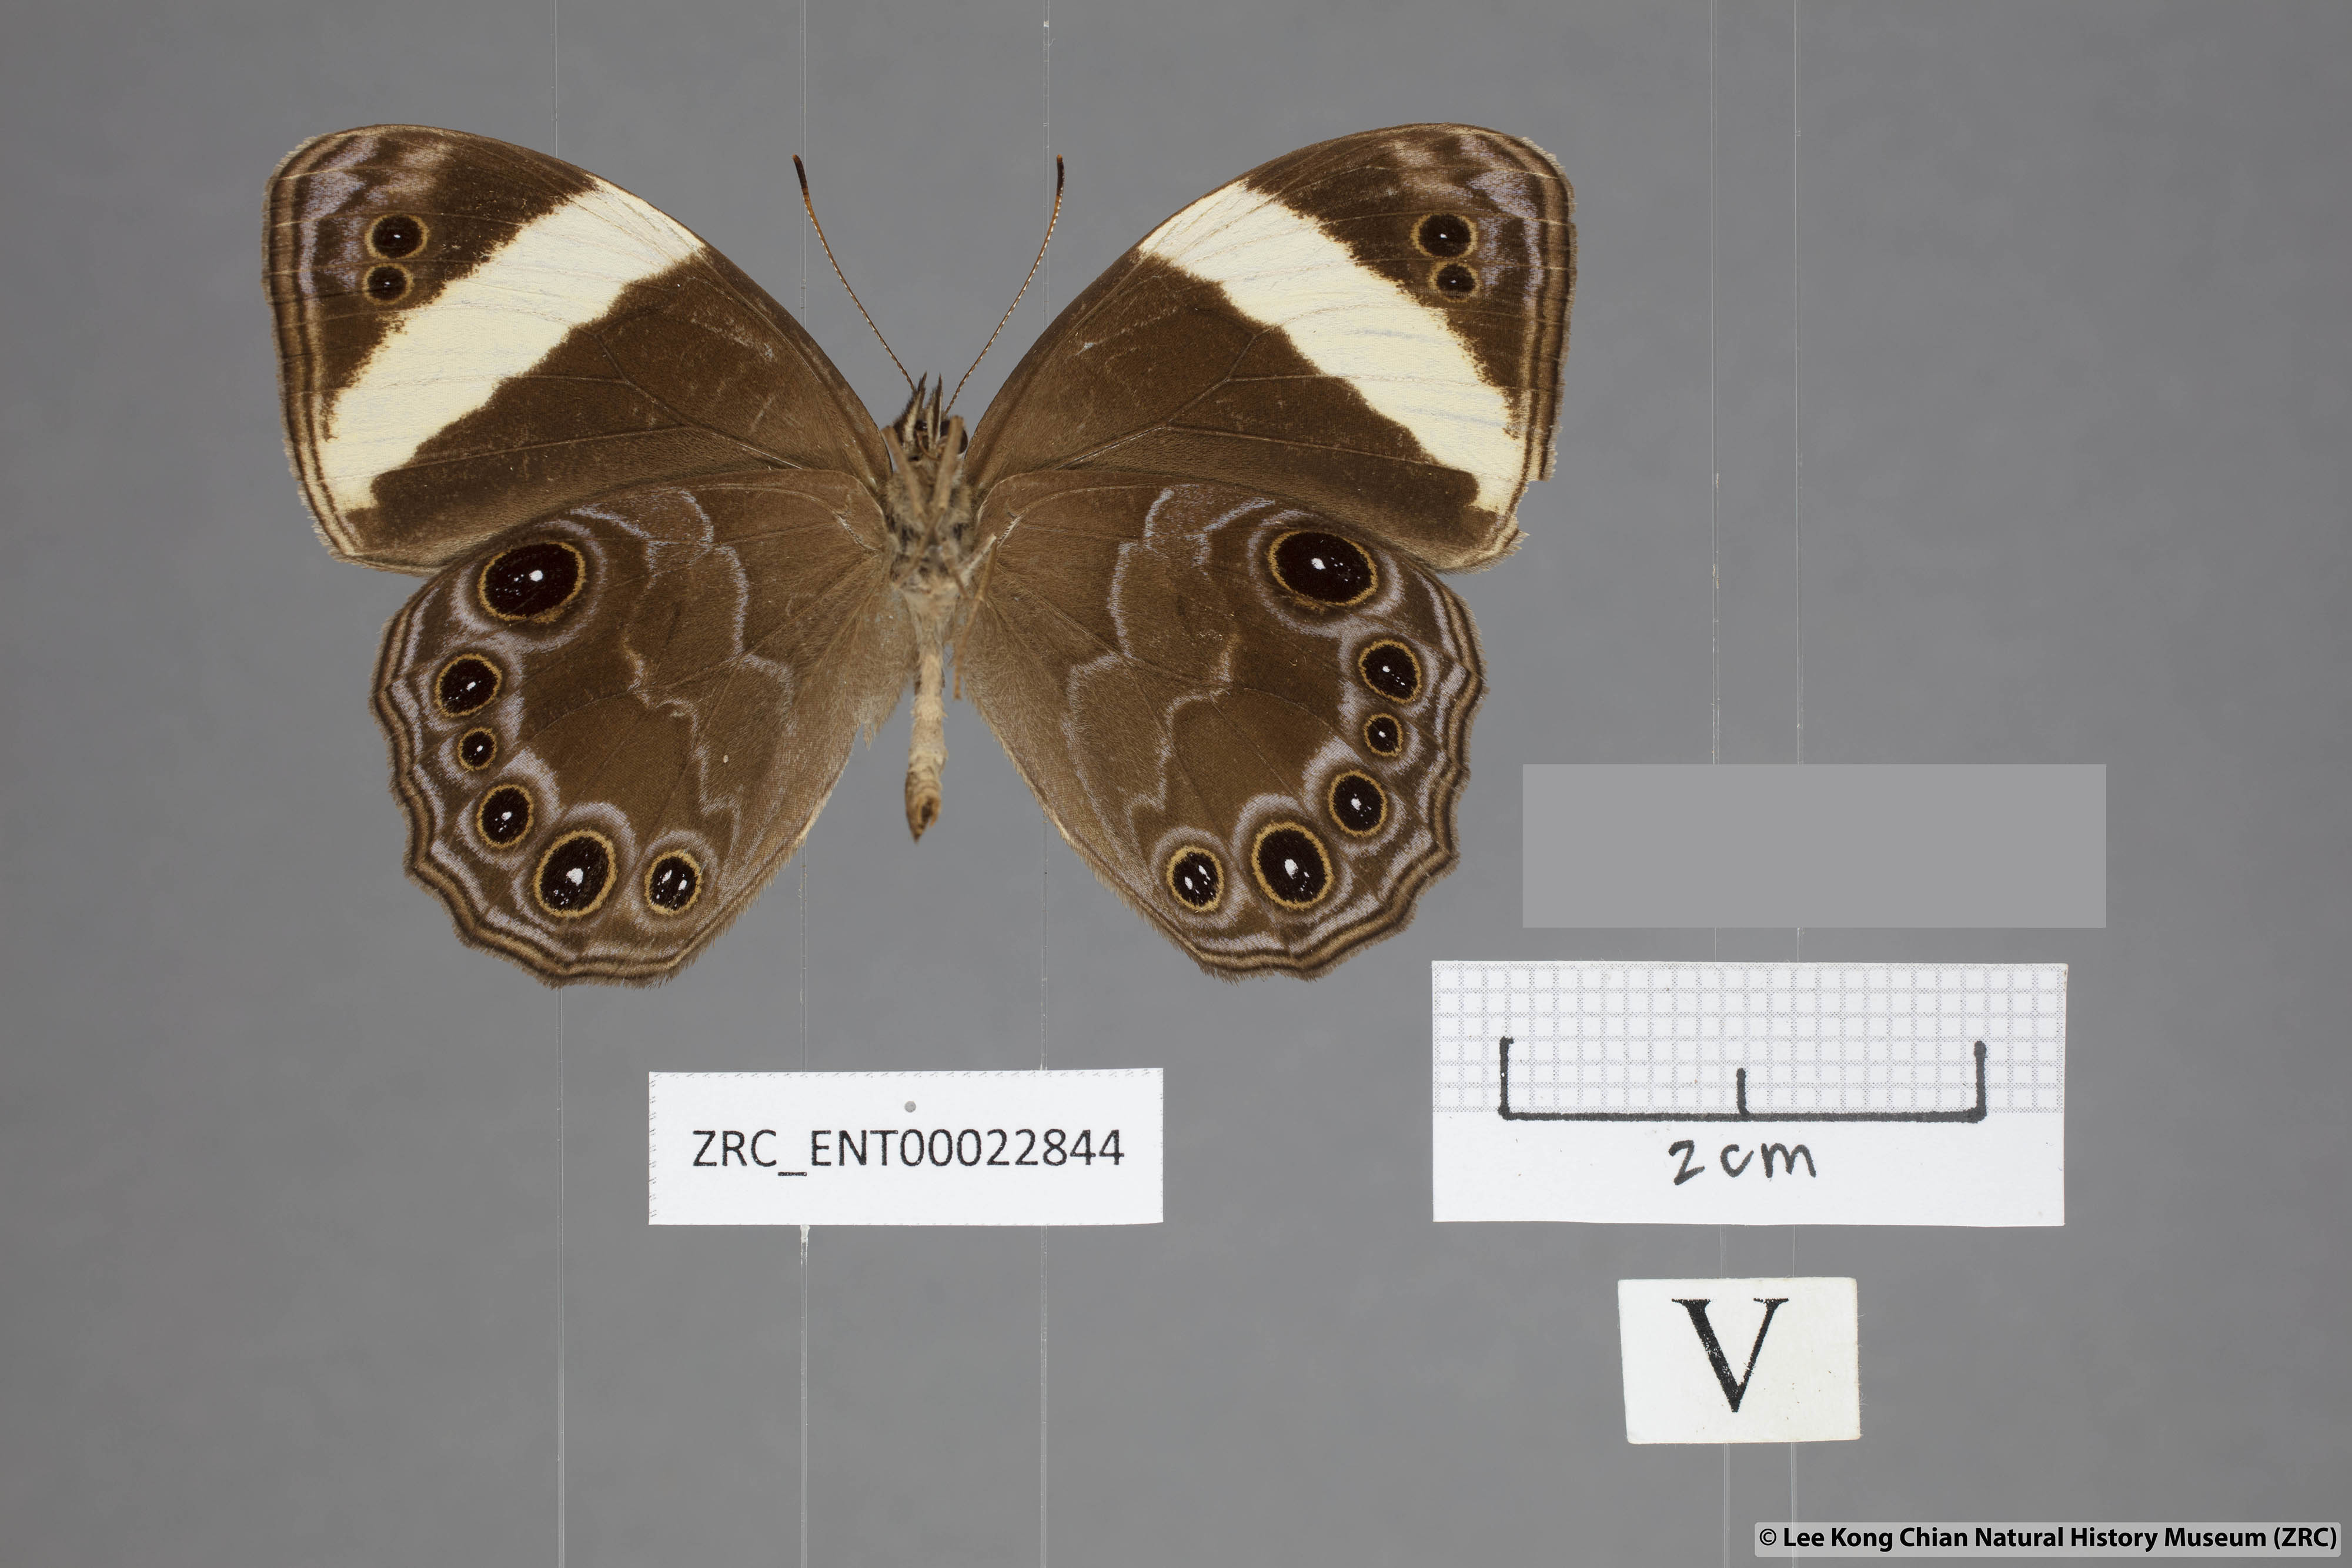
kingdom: Animalia
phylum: Arthropoda
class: Insecta
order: Lepidoptera
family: Nymphalidae
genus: Lethe
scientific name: Lethe verma
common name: Straight-banded treebrown
